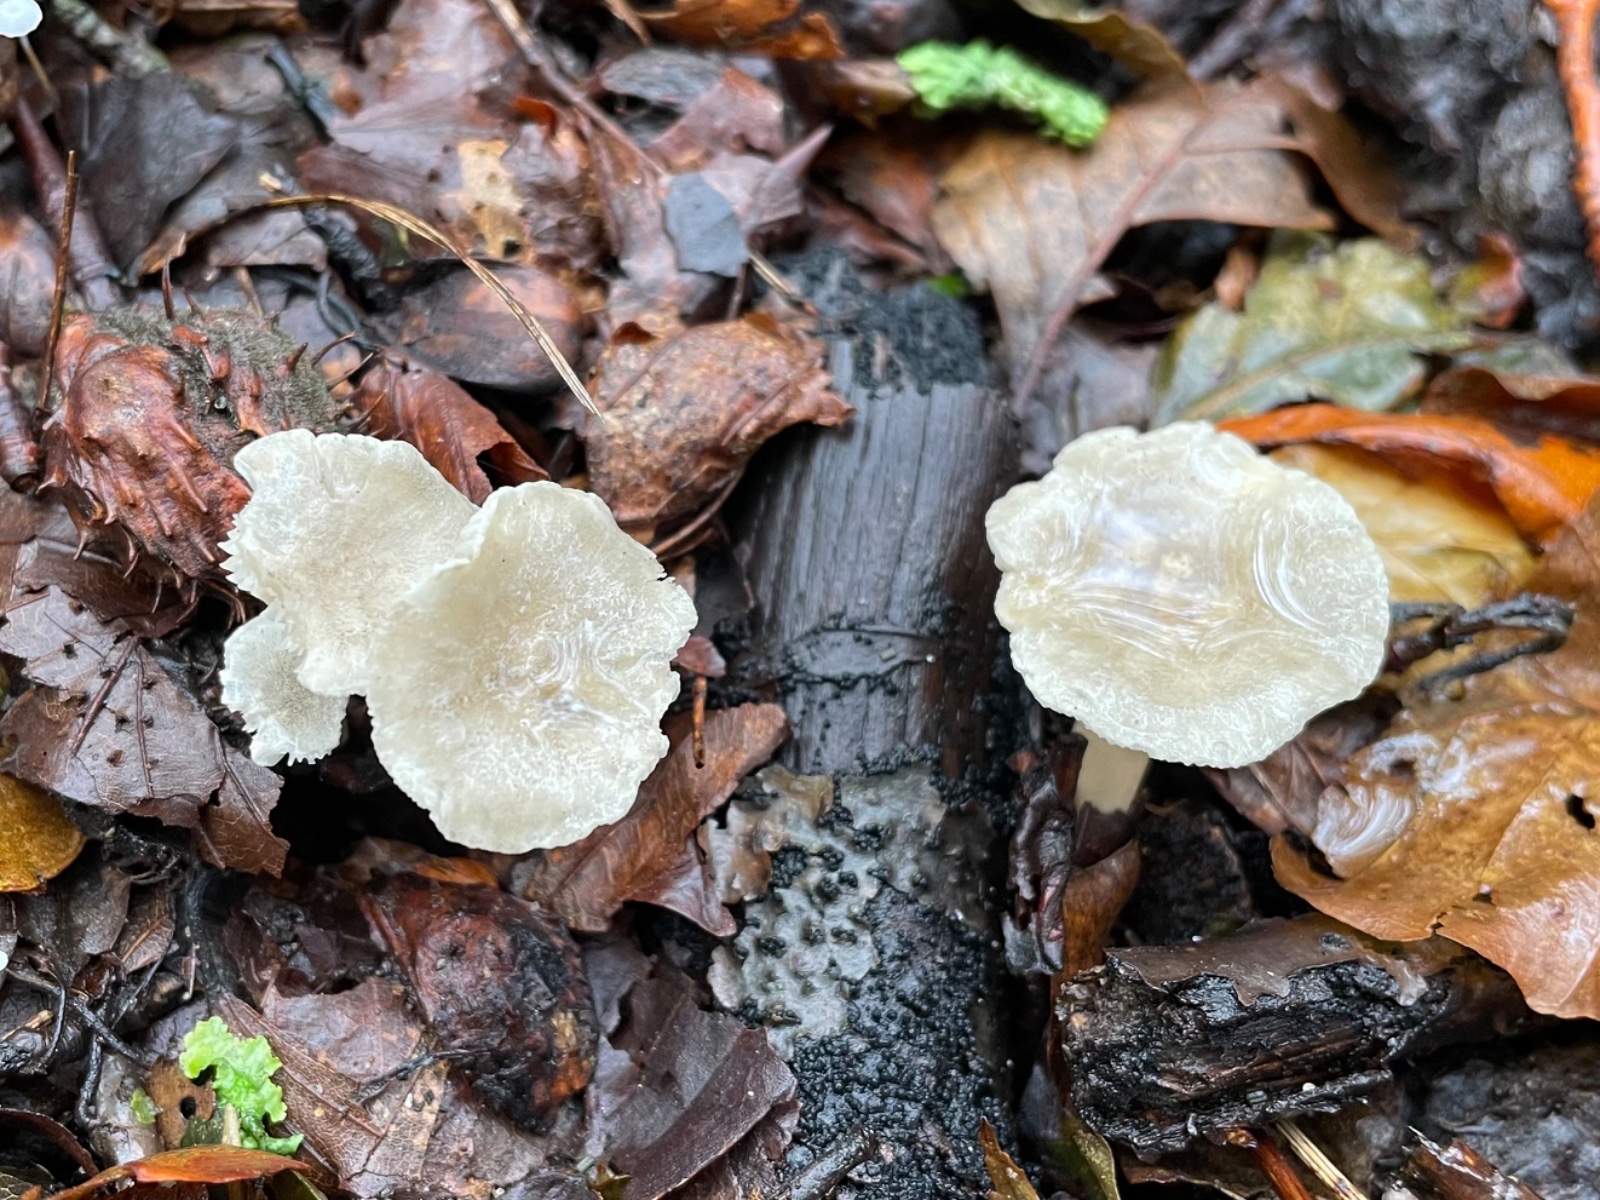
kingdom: Fungi
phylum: Basidiomycota
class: Agaricomycetes
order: Agaricales
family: Hygrophoraceae
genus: Spodocybe
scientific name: Spodocybe trulliformis
